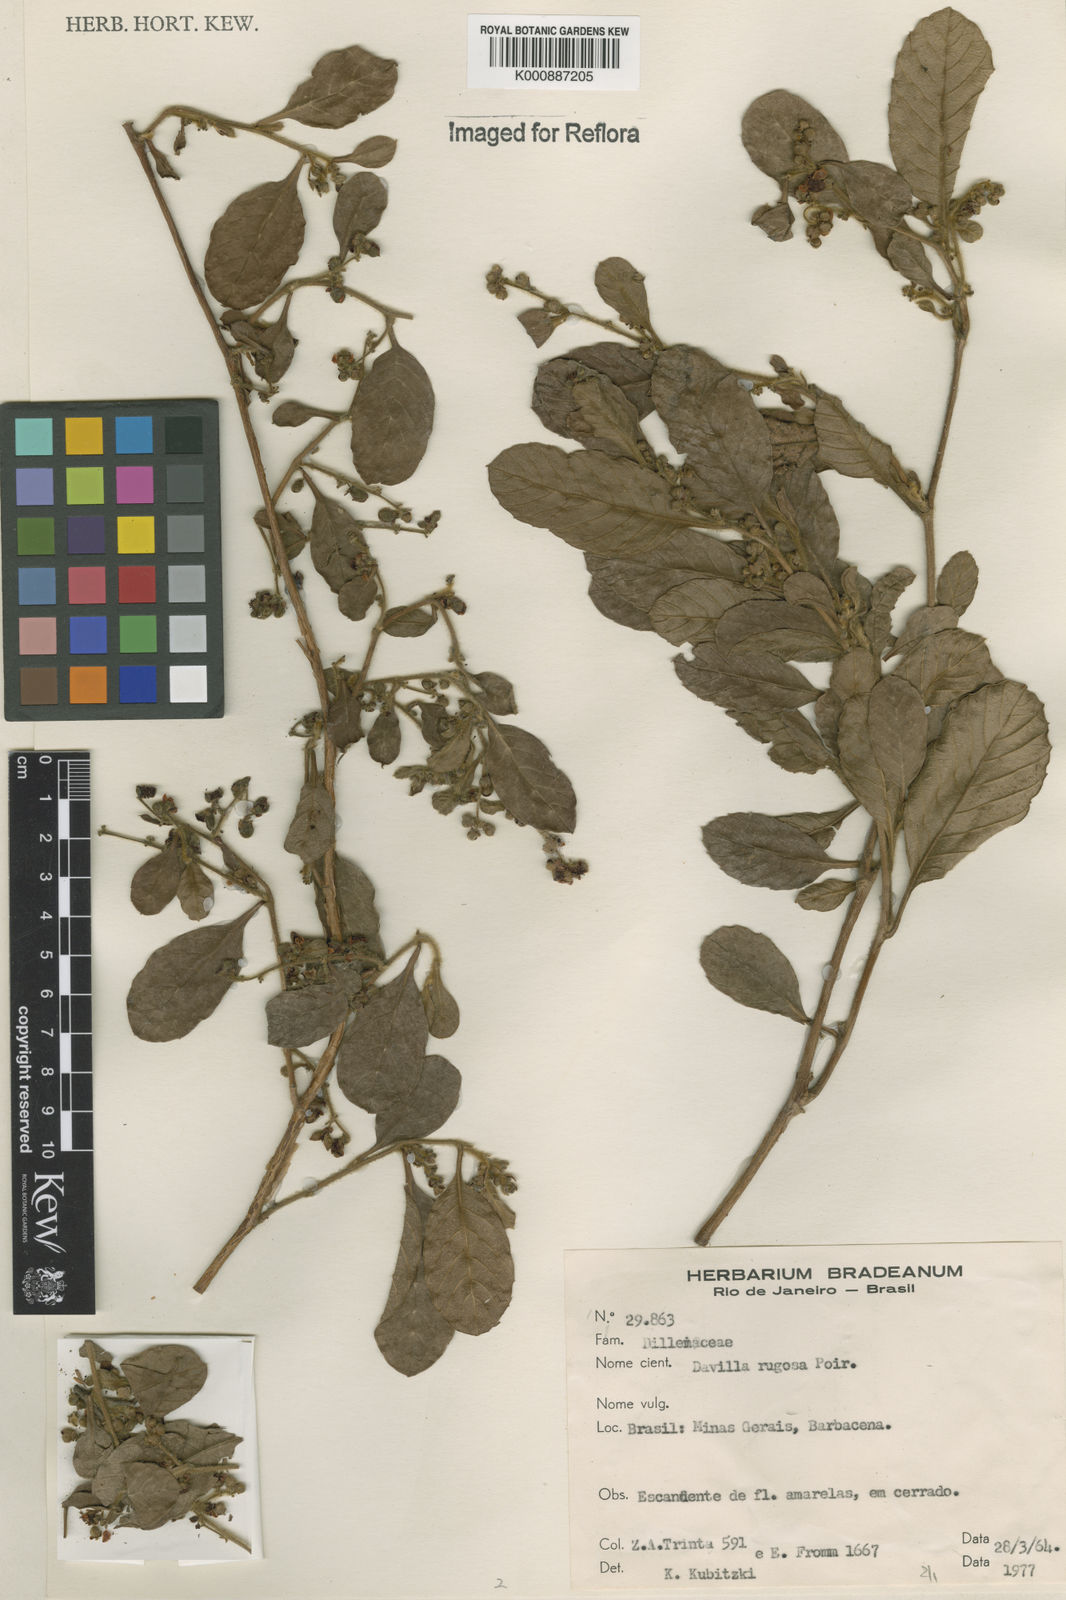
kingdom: Plantae
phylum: Tracheophyta
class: Magnoliopsida
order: Dilleniales
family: Dilleniaceae
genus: Davilla
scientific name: Davilla rugosa
